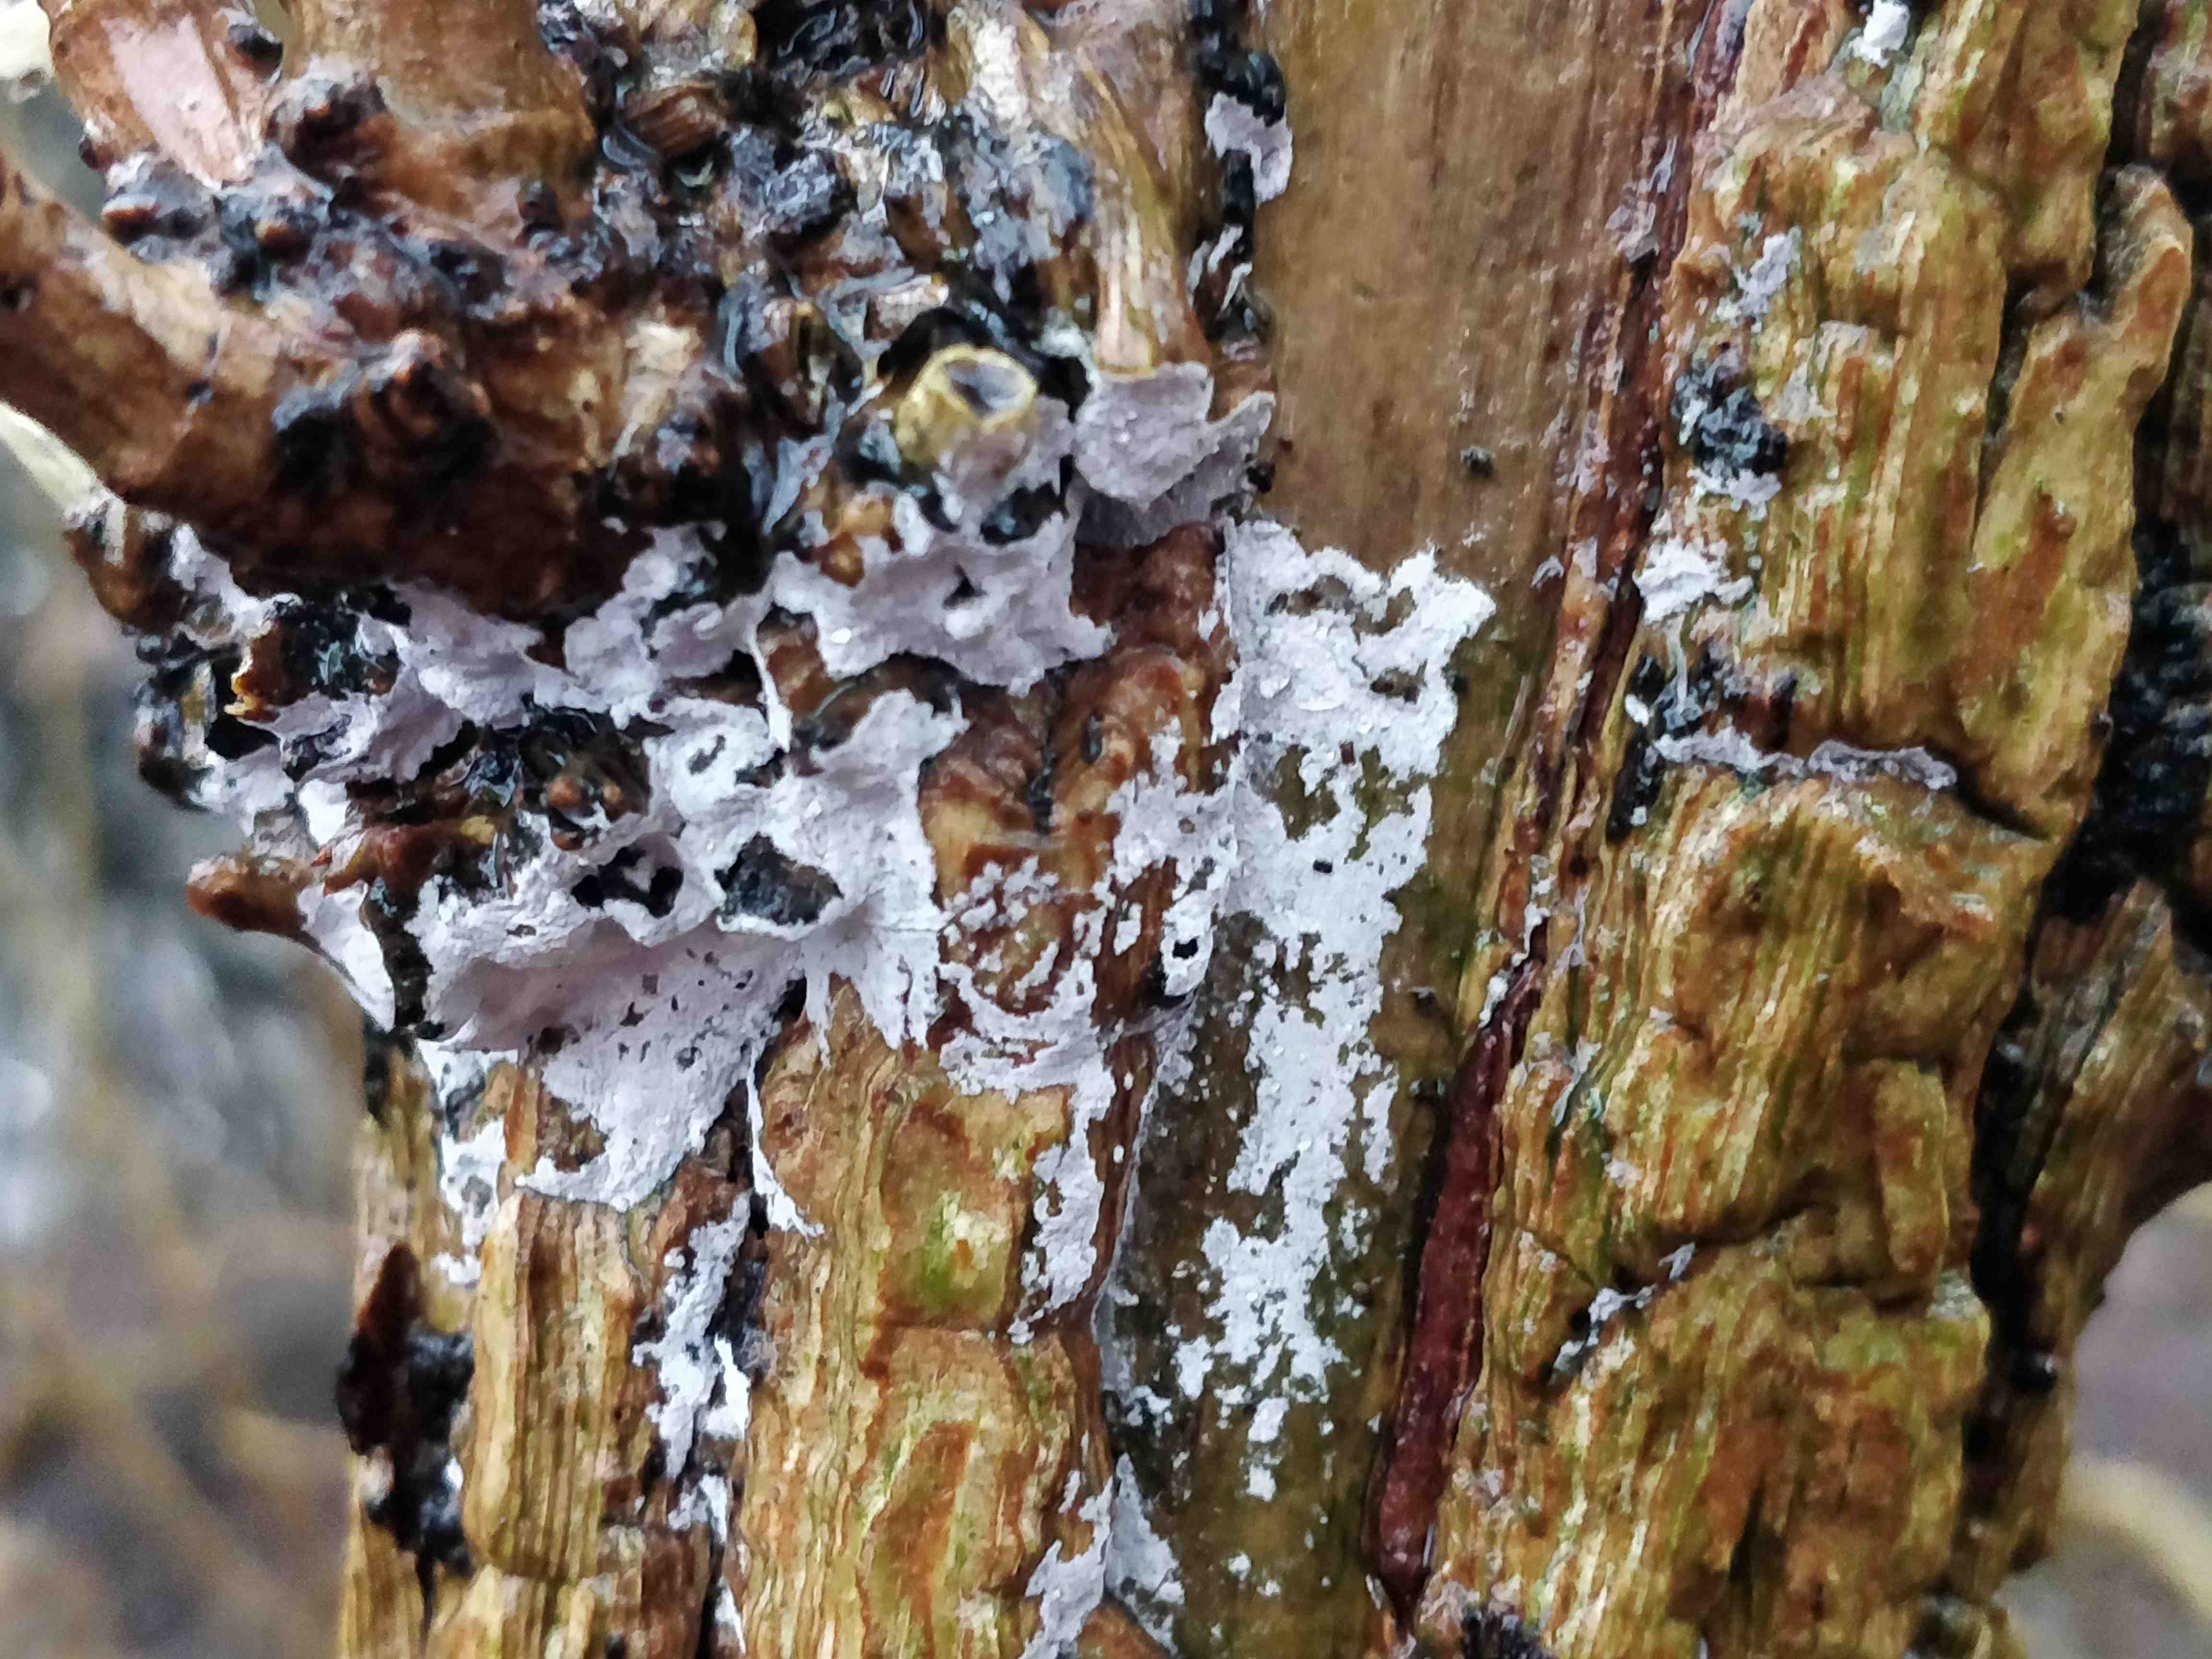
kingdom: Fungi
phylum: Basidiomycota
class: Agaricomycetes
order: Corticiales
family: Corticiaceae
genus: Lyomyces
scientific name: Lyomyces sambuci
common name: almindelig hyldehinde
